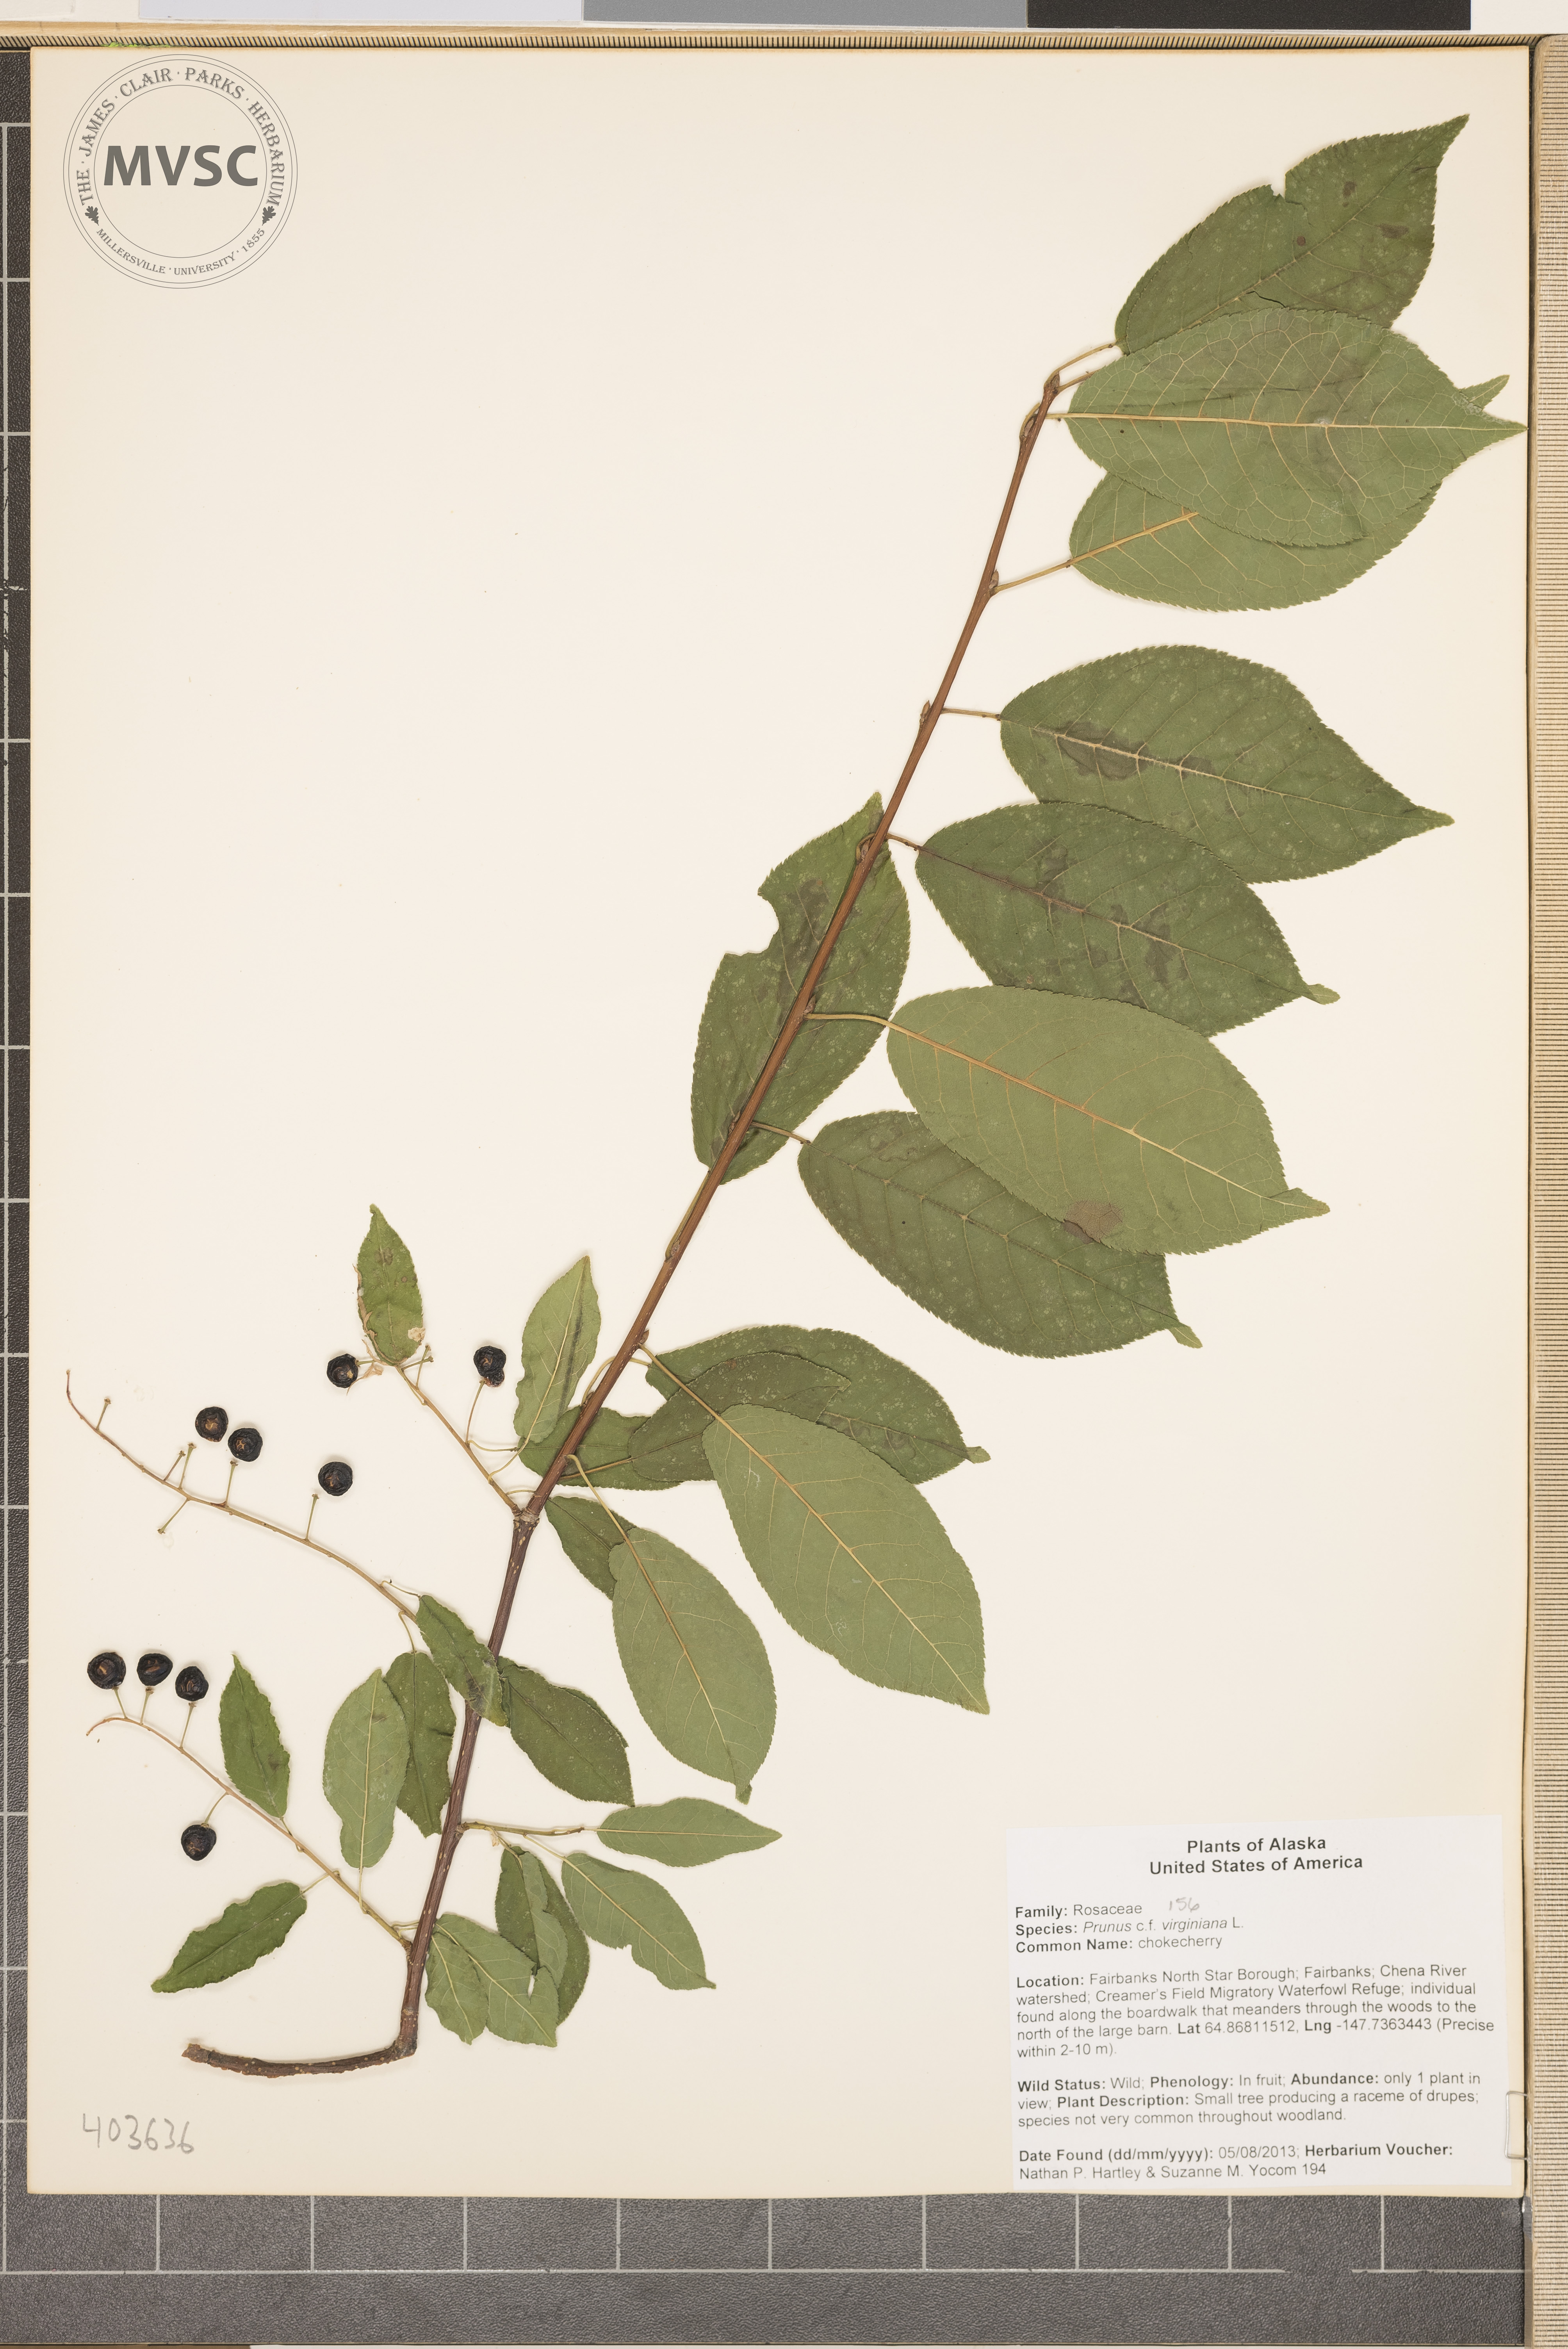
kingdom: Plantae
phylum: Tracheophyta
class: Magnoliopsida
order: Rosales
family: Rosaceae
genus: Prunus
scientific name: Prunus virginiana
